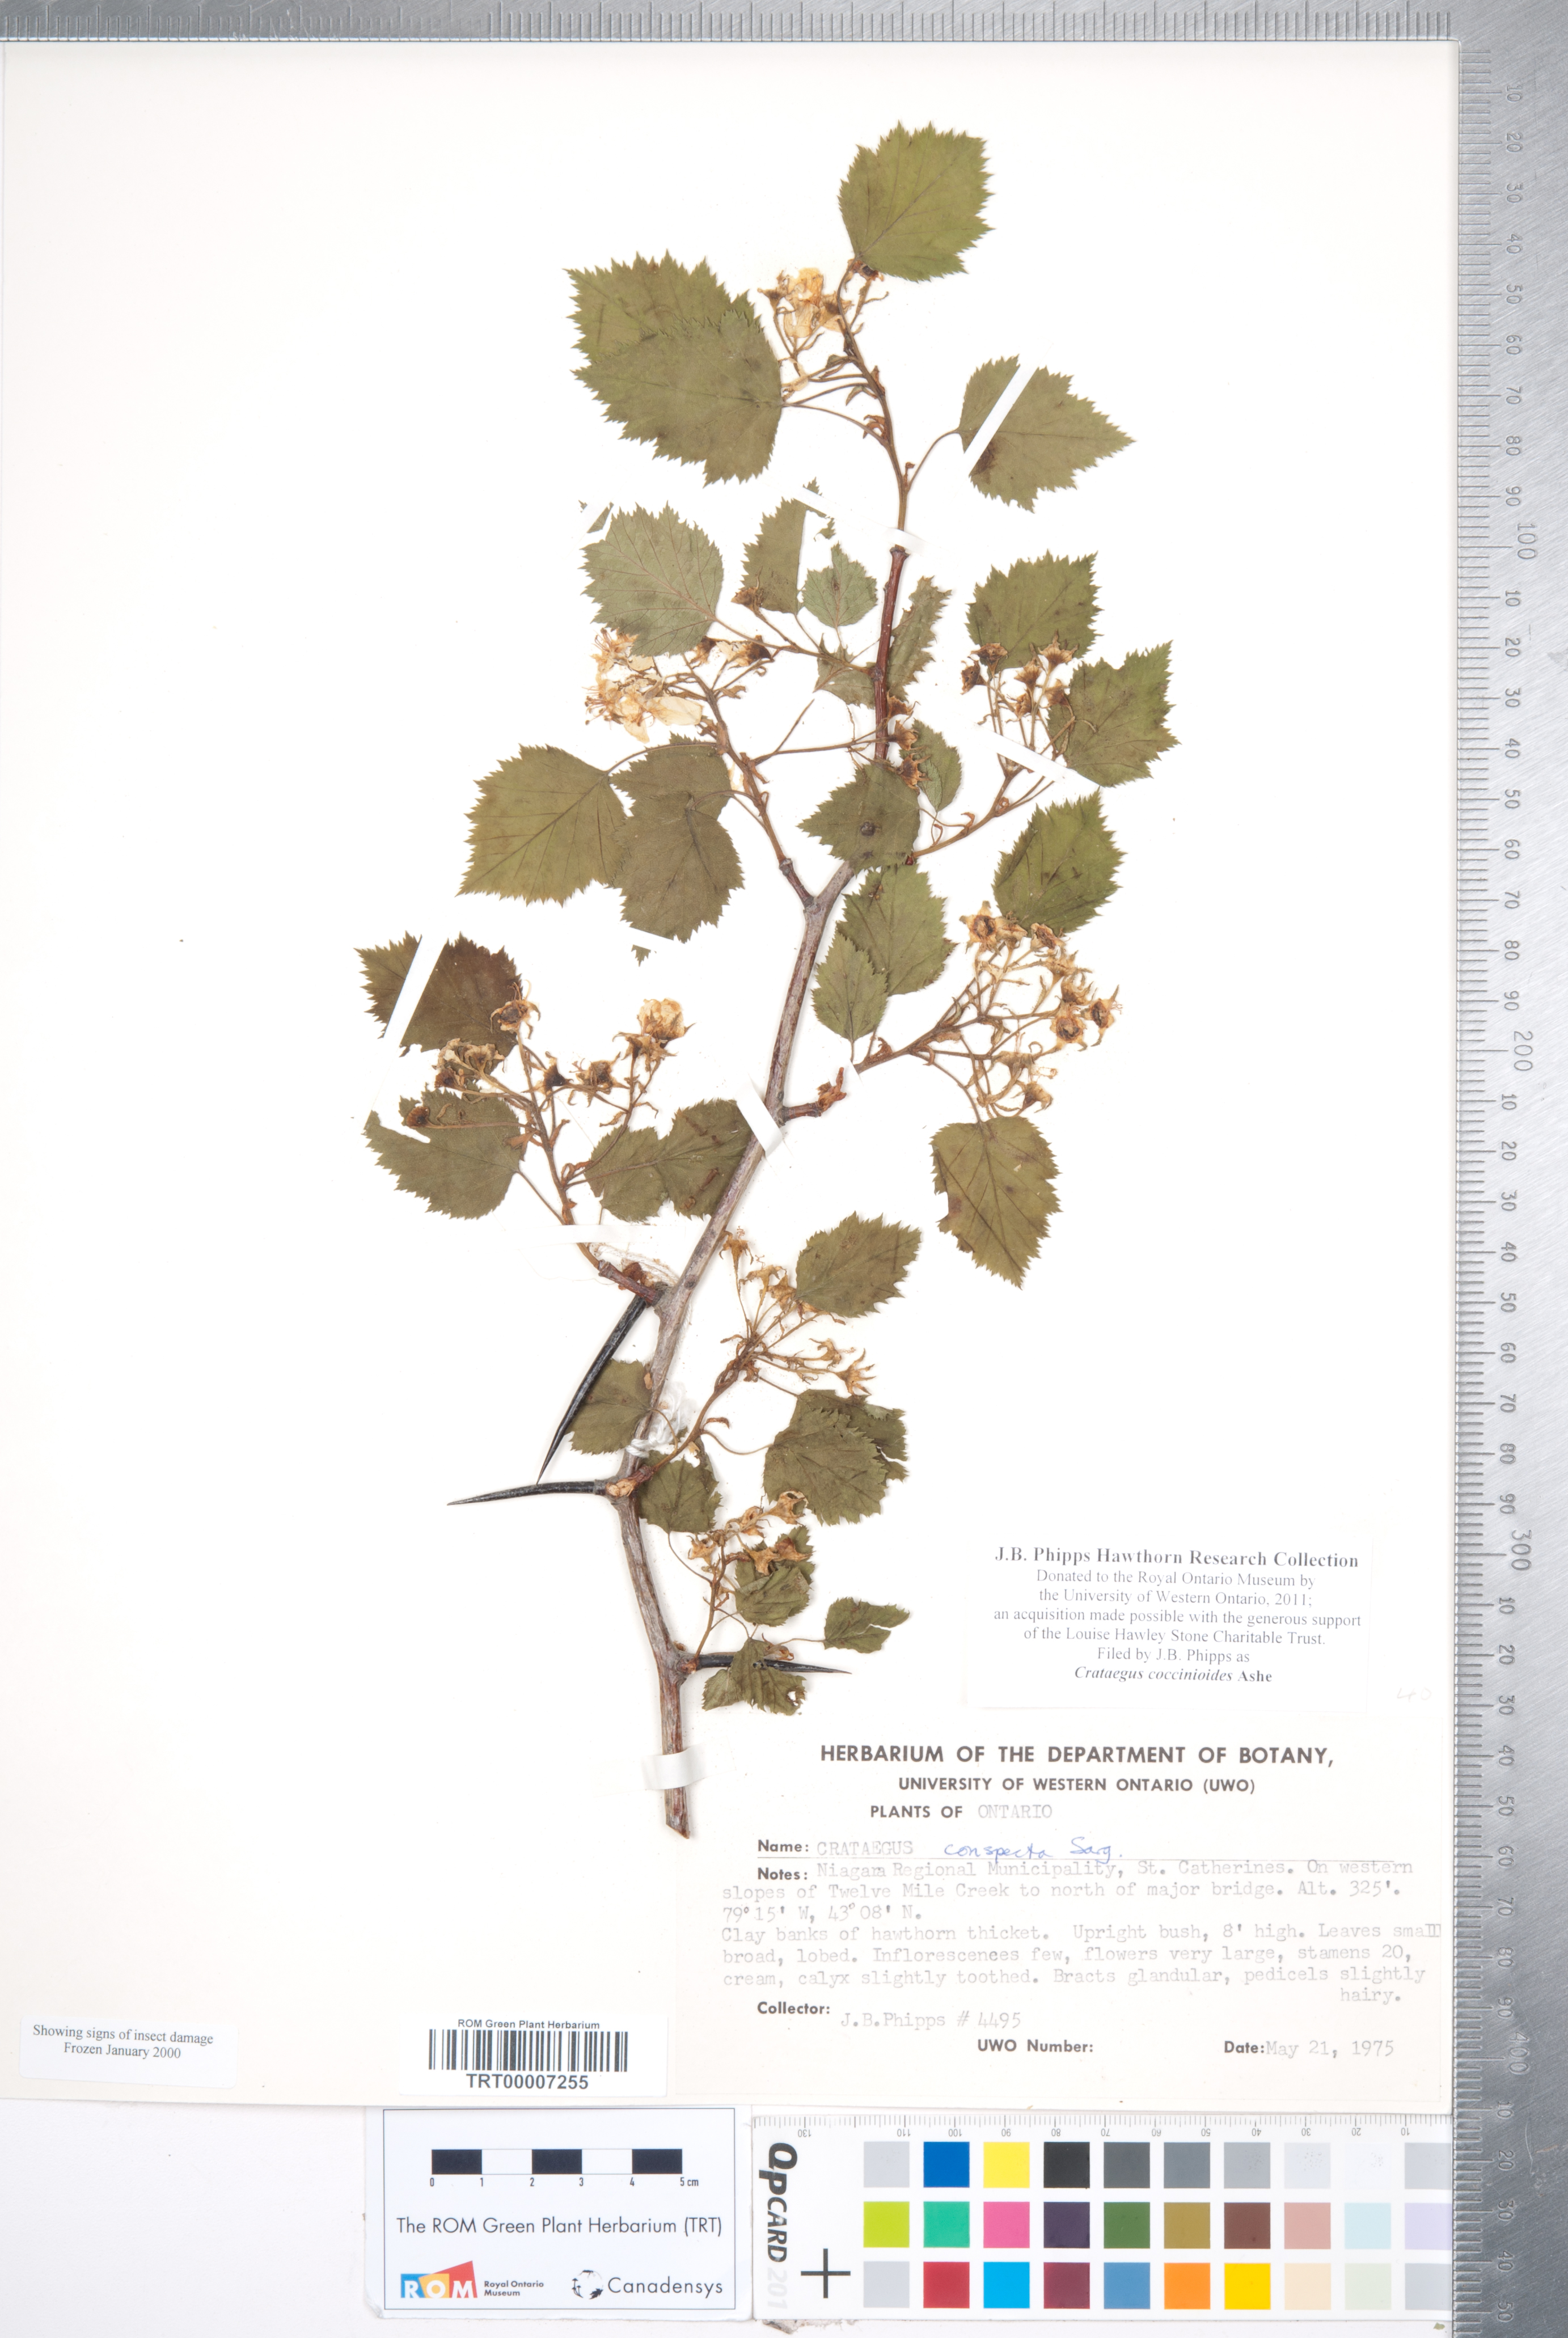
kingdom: Plantae
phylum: Tracheophyta
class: Magnoliopsida
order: Rosales
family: Rosaceae
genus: Crataegus
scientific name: Crataegus coccinioides
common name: Large-flowered cockspurthorn
